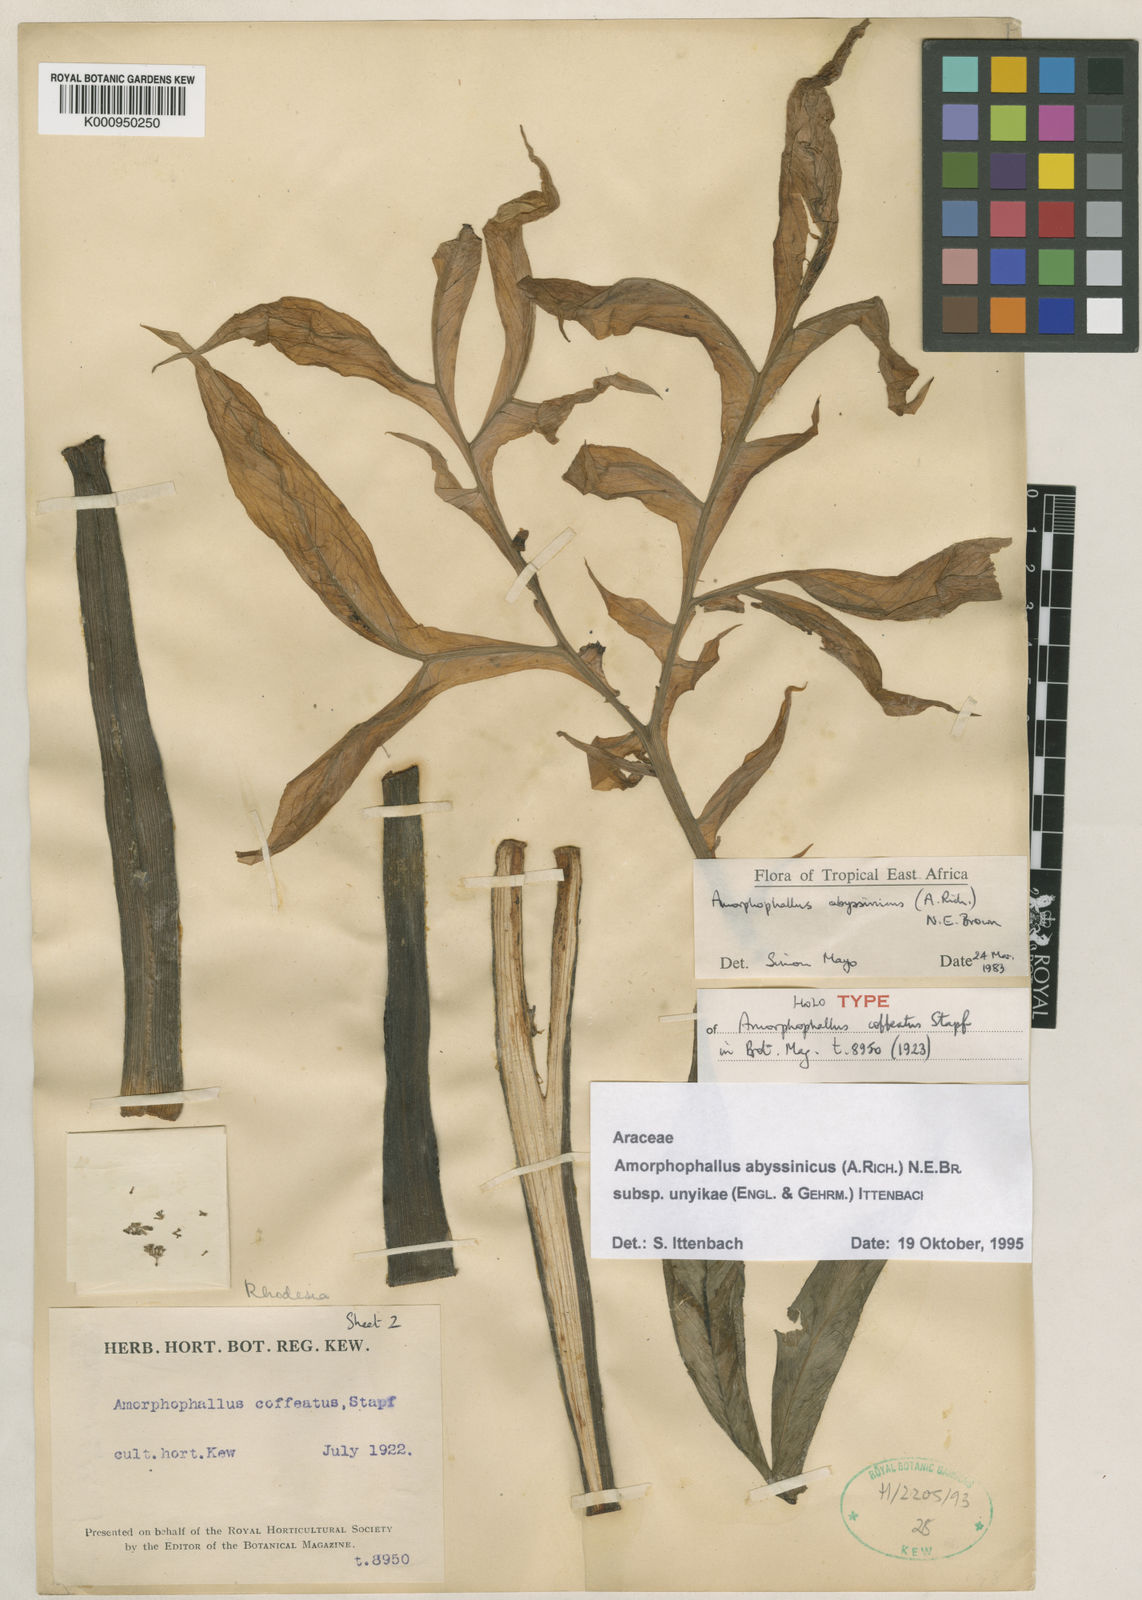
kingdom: Plantae
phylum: Tracheophyta
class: Liliopsida
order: Alismatales
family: Araceae
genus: Amorphophallus
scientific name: Amorphophallus abyssinicus
